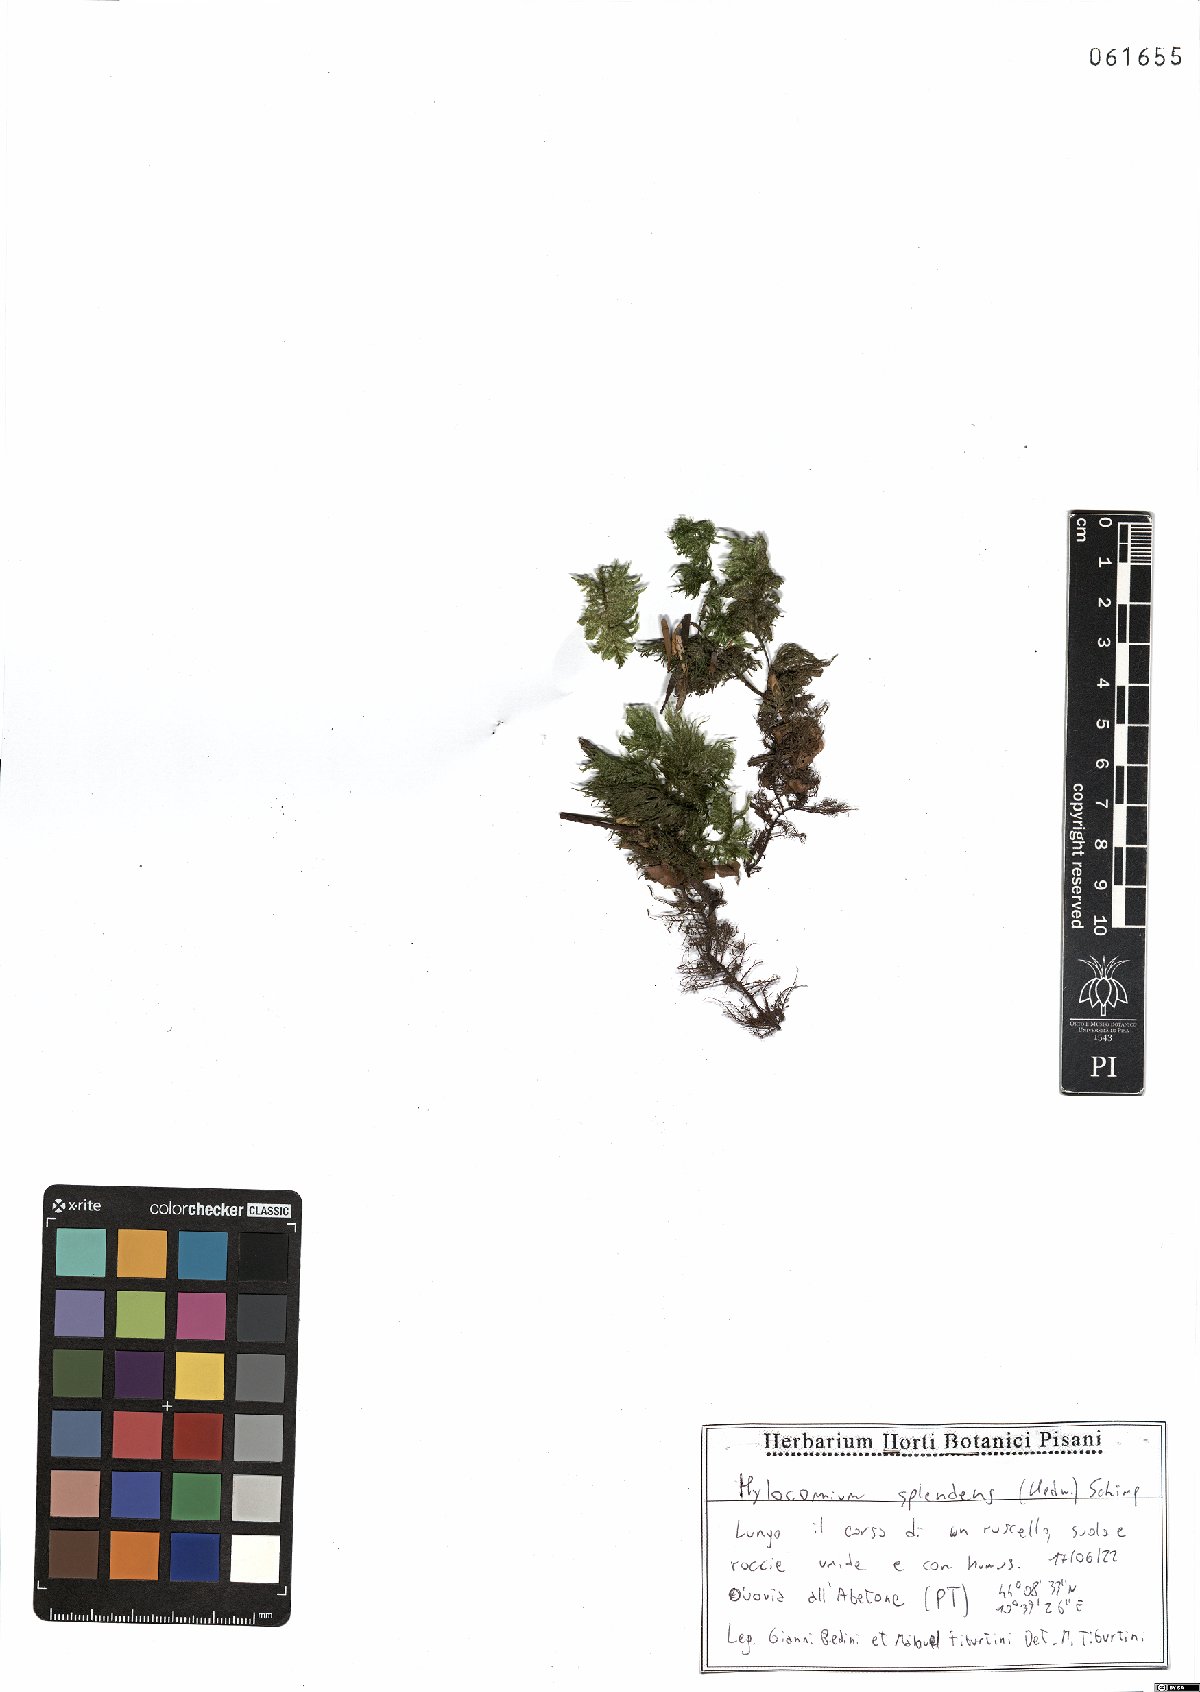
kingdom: Plantae
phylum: Bryophyta
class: Bryopsida
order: Hypnales
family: Hylocomiaceae
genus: Hylocomium
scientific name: Hylocomium splendens
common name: Stairstep moss
